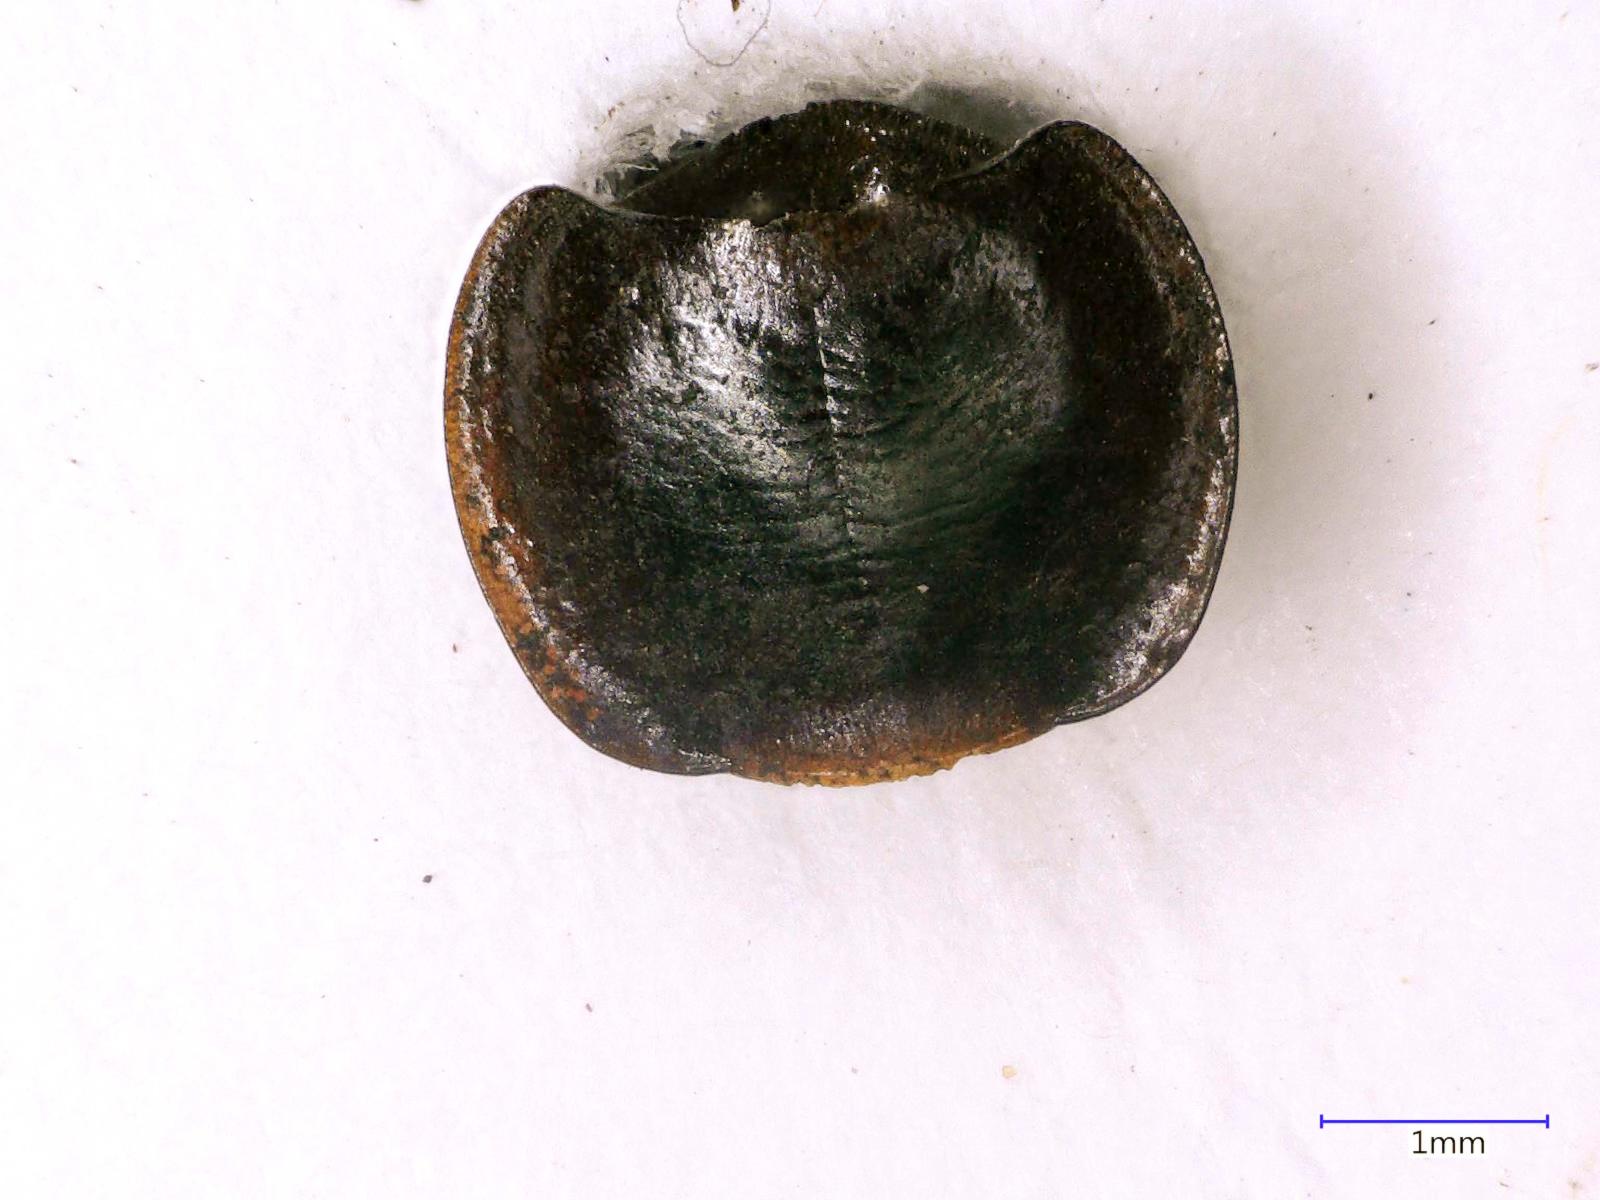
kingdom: Animalia
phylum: Arthropoda
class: Insecta
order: Coleoptera
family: Carabidae
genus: Tanystoma
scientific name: Tanystoma maculicolle
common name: Tule beetle
